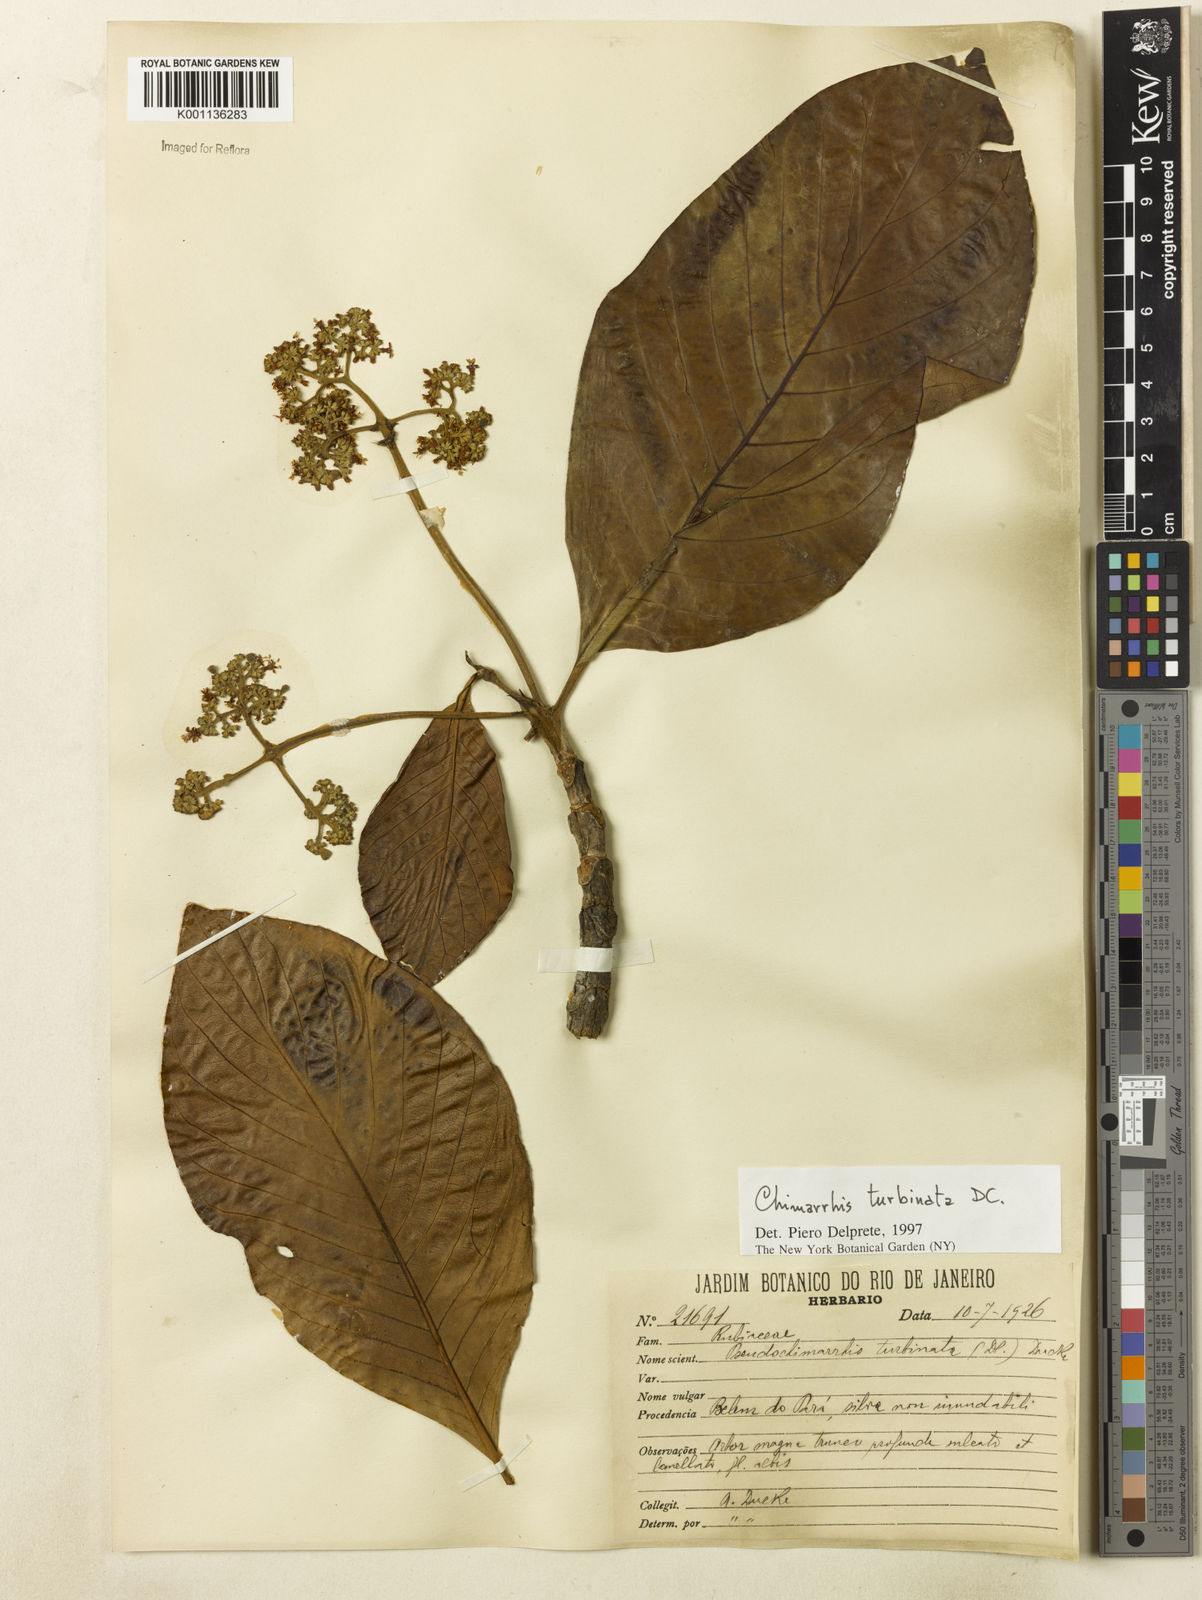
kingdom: Plantae
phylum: Tracheophyta
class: Magnoliopsida
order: Gentianales
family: Rubiaceae
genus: Chimarrhis
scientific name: Chimarrhis turbinata
